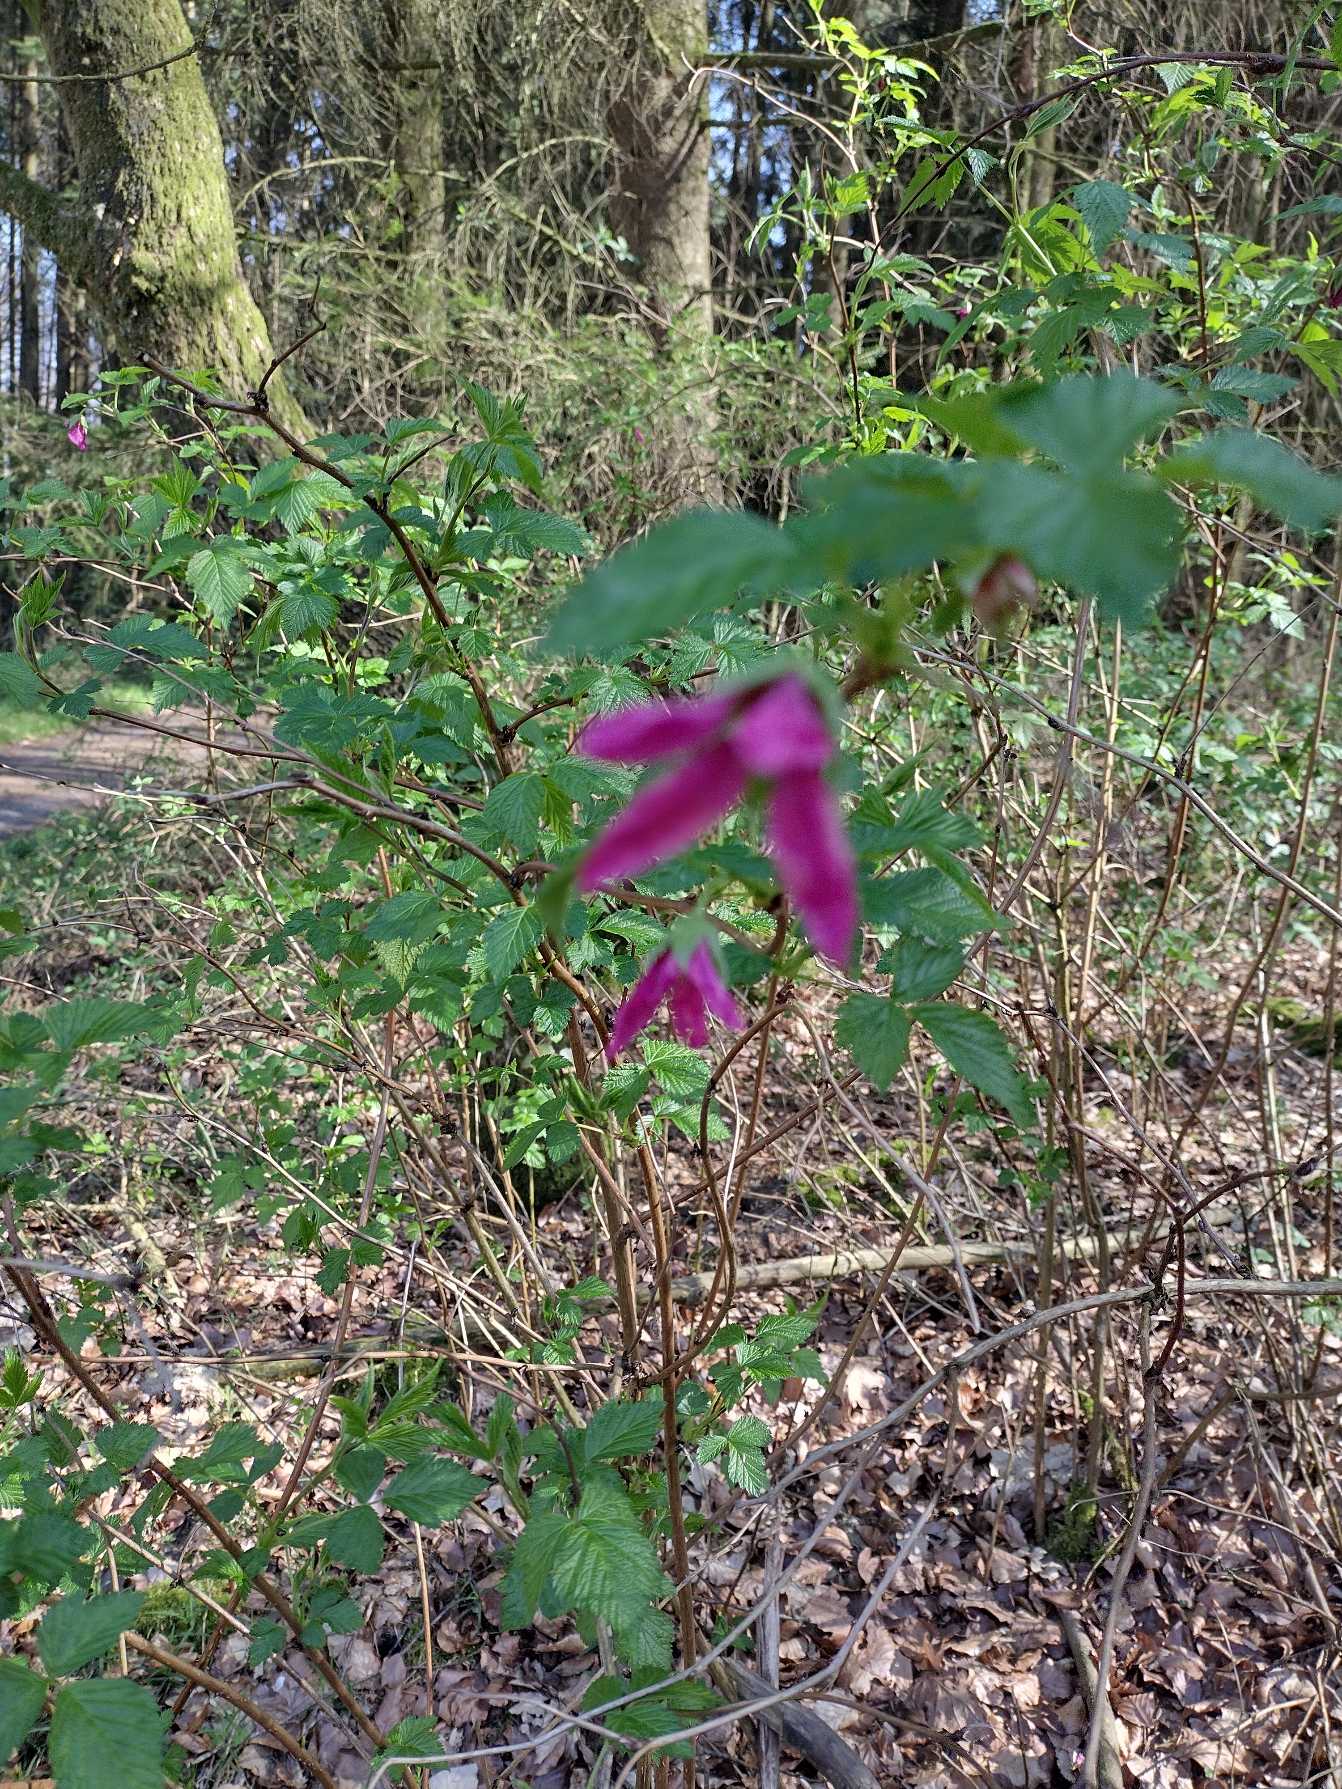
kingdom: Plantae
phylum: Tracheophyta
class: Magnoliopsida
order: Rosales
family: Rosaceae
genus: Rubus
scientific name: Rubus spectabilis
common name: Laksebær
